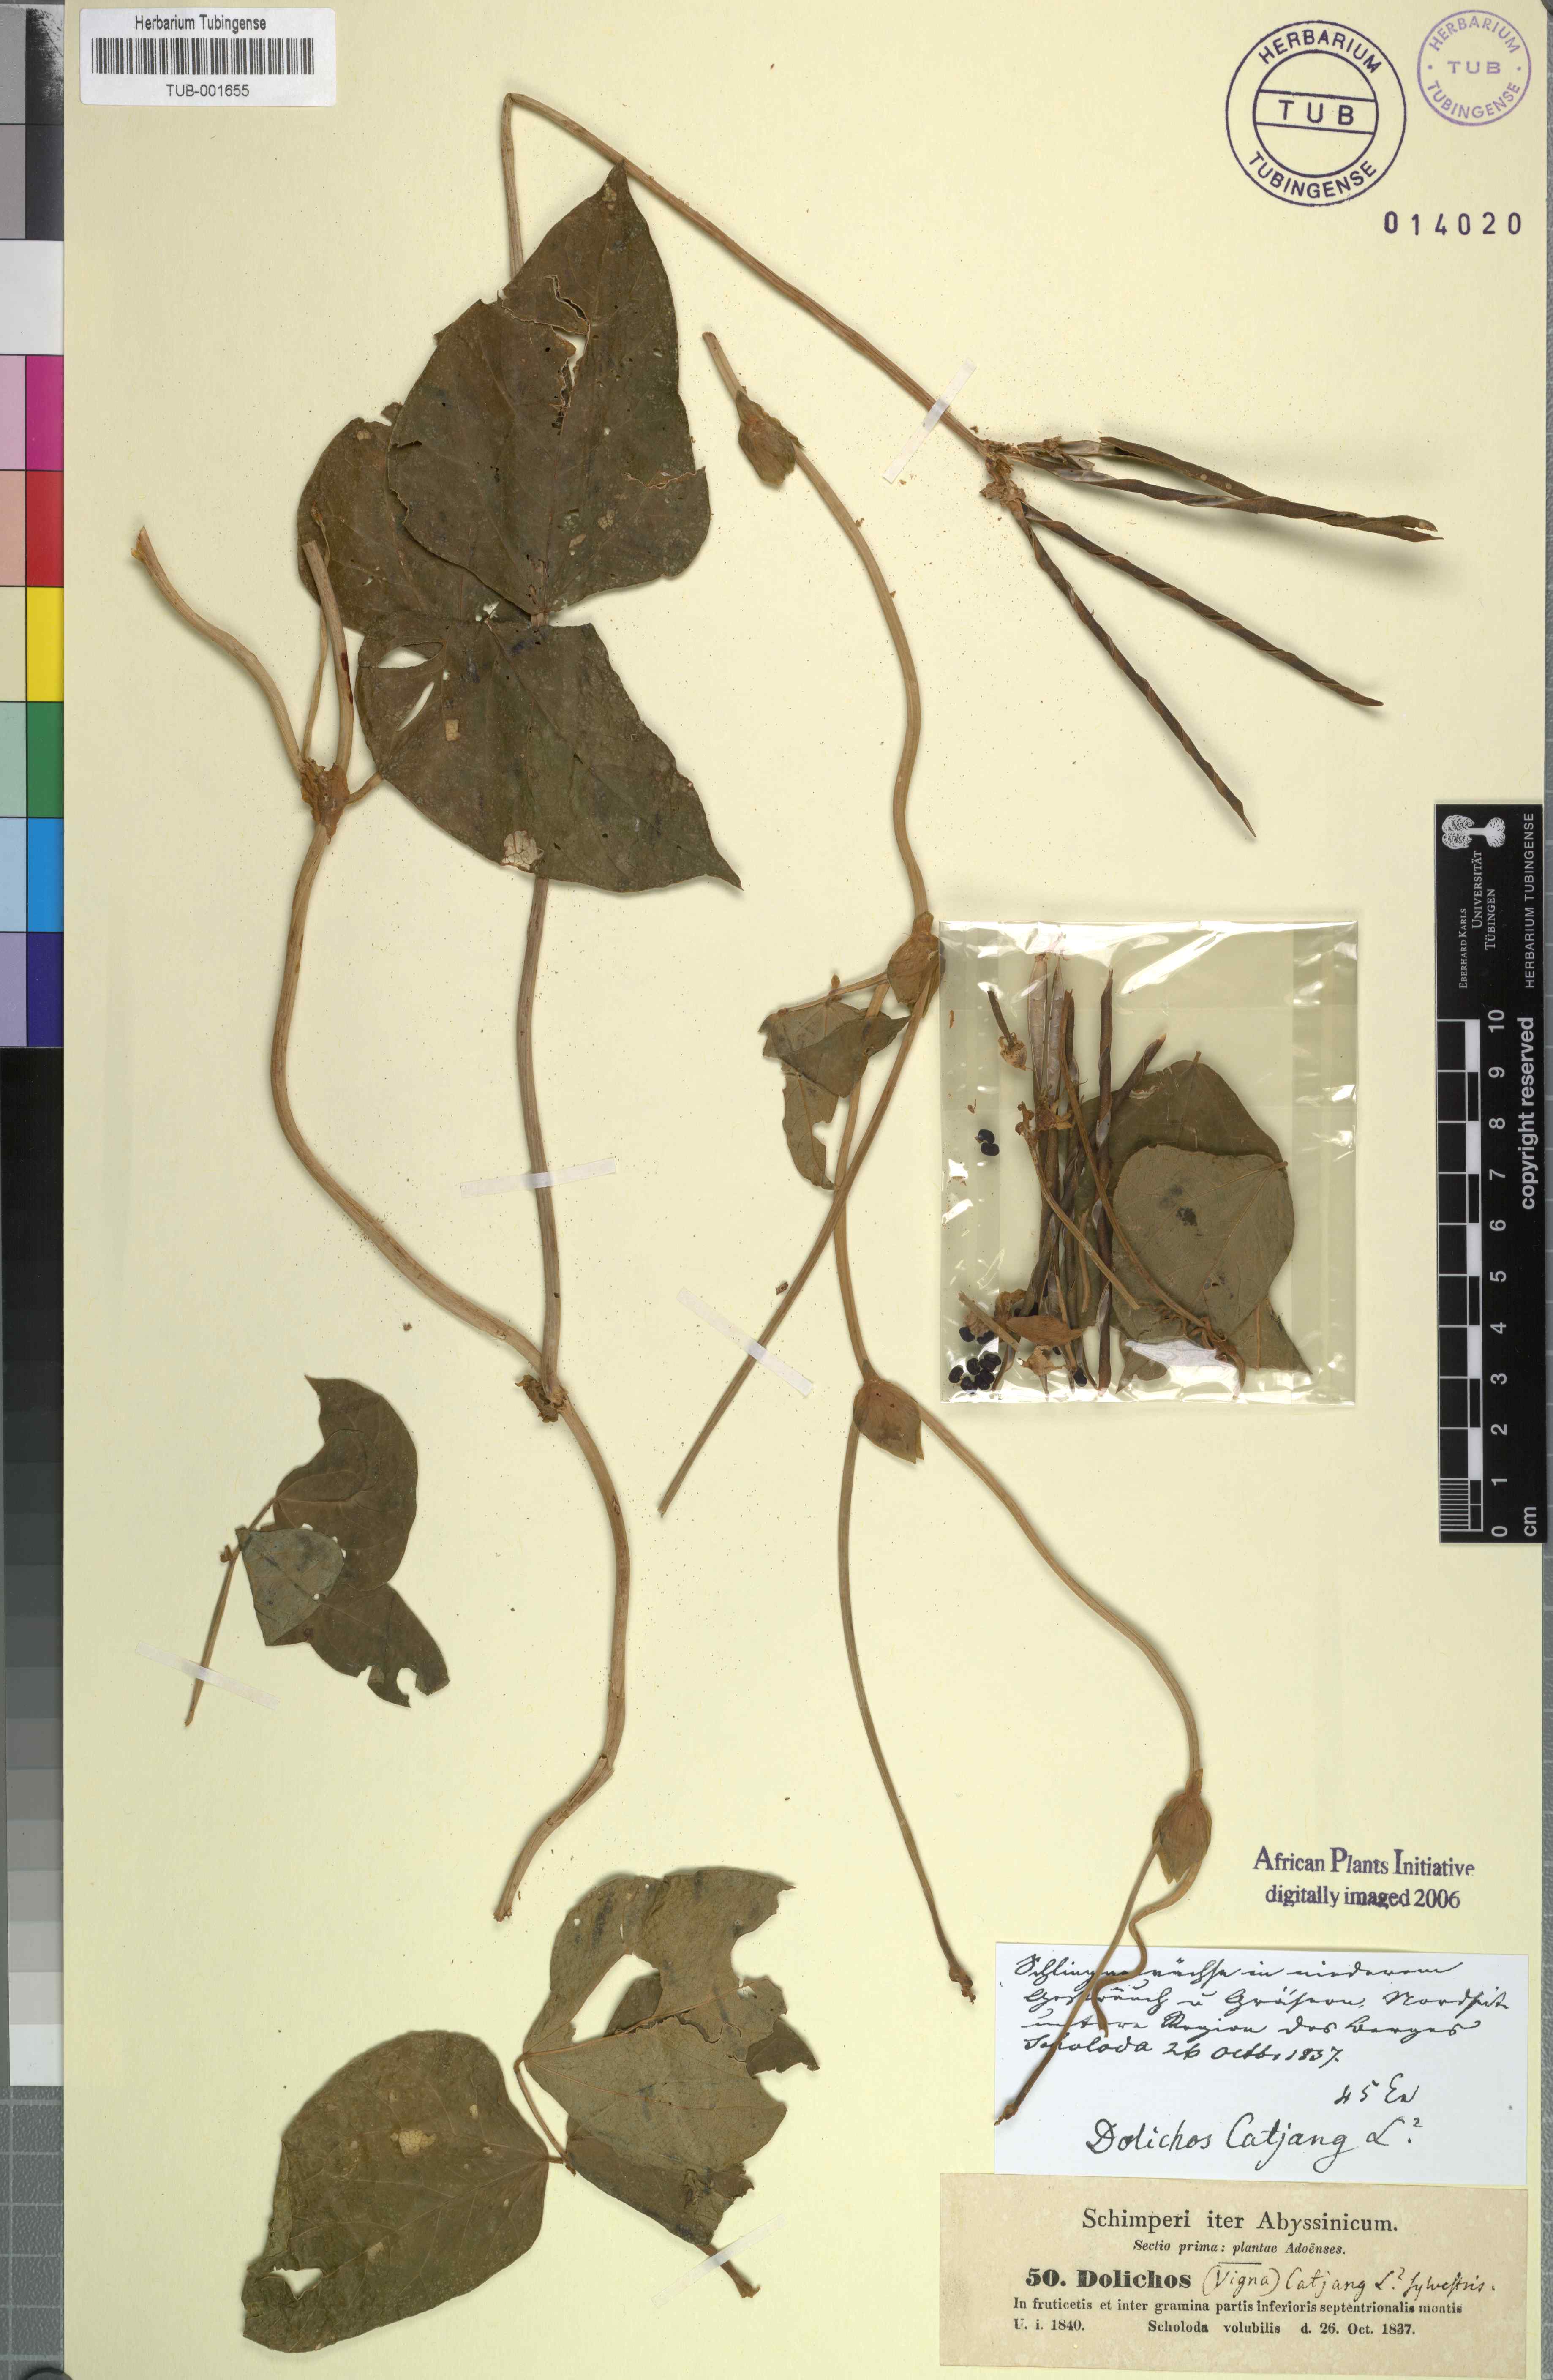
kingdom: Plantae
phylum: Tracheophyta
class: Magnoliopsida
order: Fabales
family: Fabaceae
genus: Vigna
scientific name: Vigna unguiculata
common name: Cowpea
